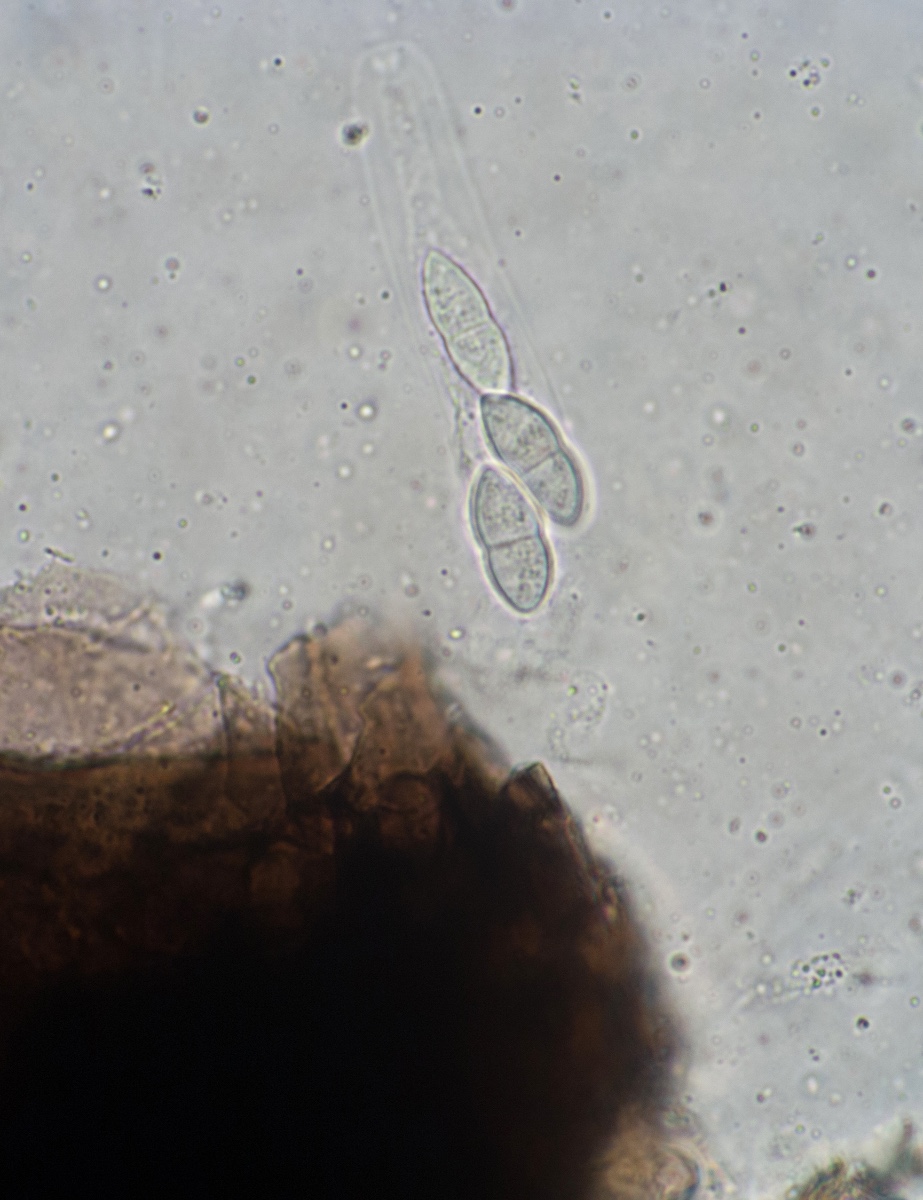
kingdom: Fungi
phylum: Ascomycota
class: Sordariomycetes
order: Diaporthales
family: Gnomoniaceae
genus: Plagiostoma
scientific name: Plagiostoma convexum
